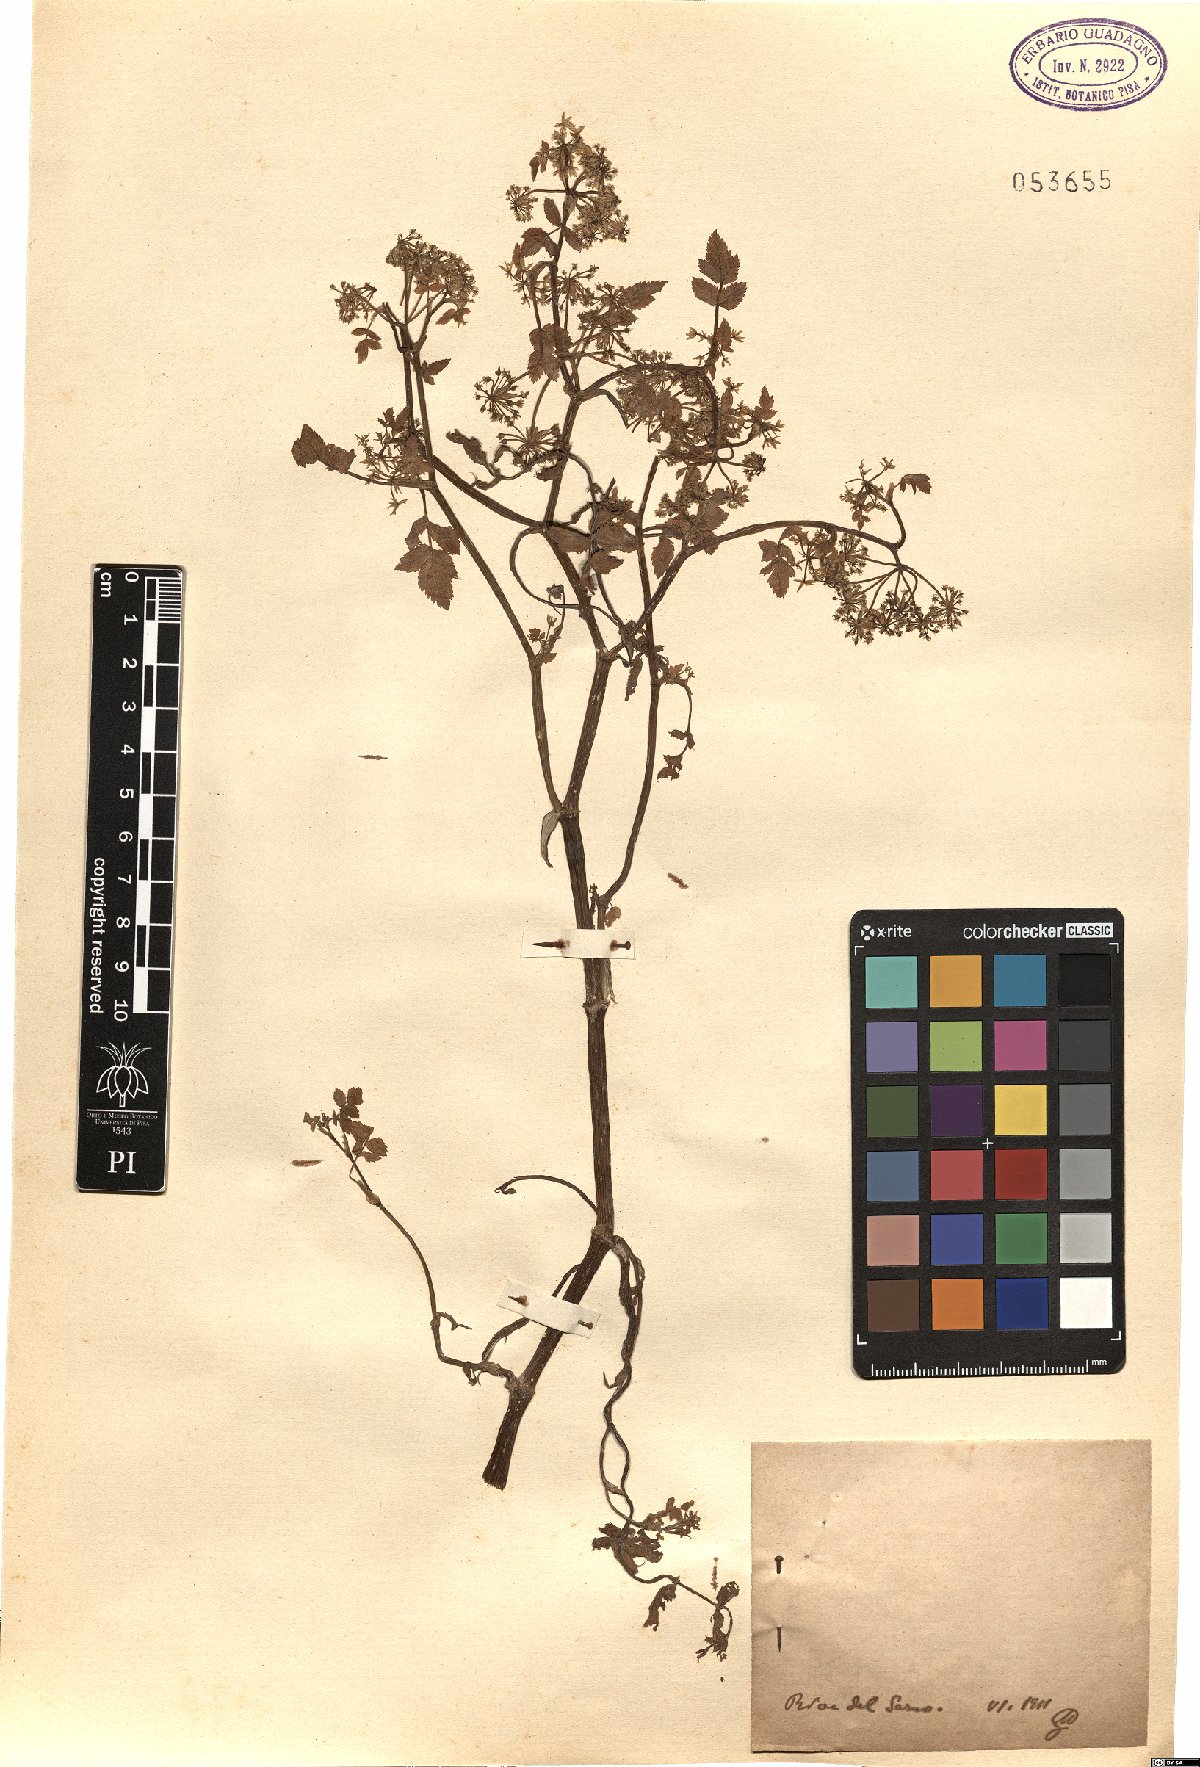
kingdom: Plantae
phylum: Tracheophyta
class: Magnoliopsida
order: Apiales
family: Apiaceae
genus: Helosciadium
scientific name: Helosciadium
